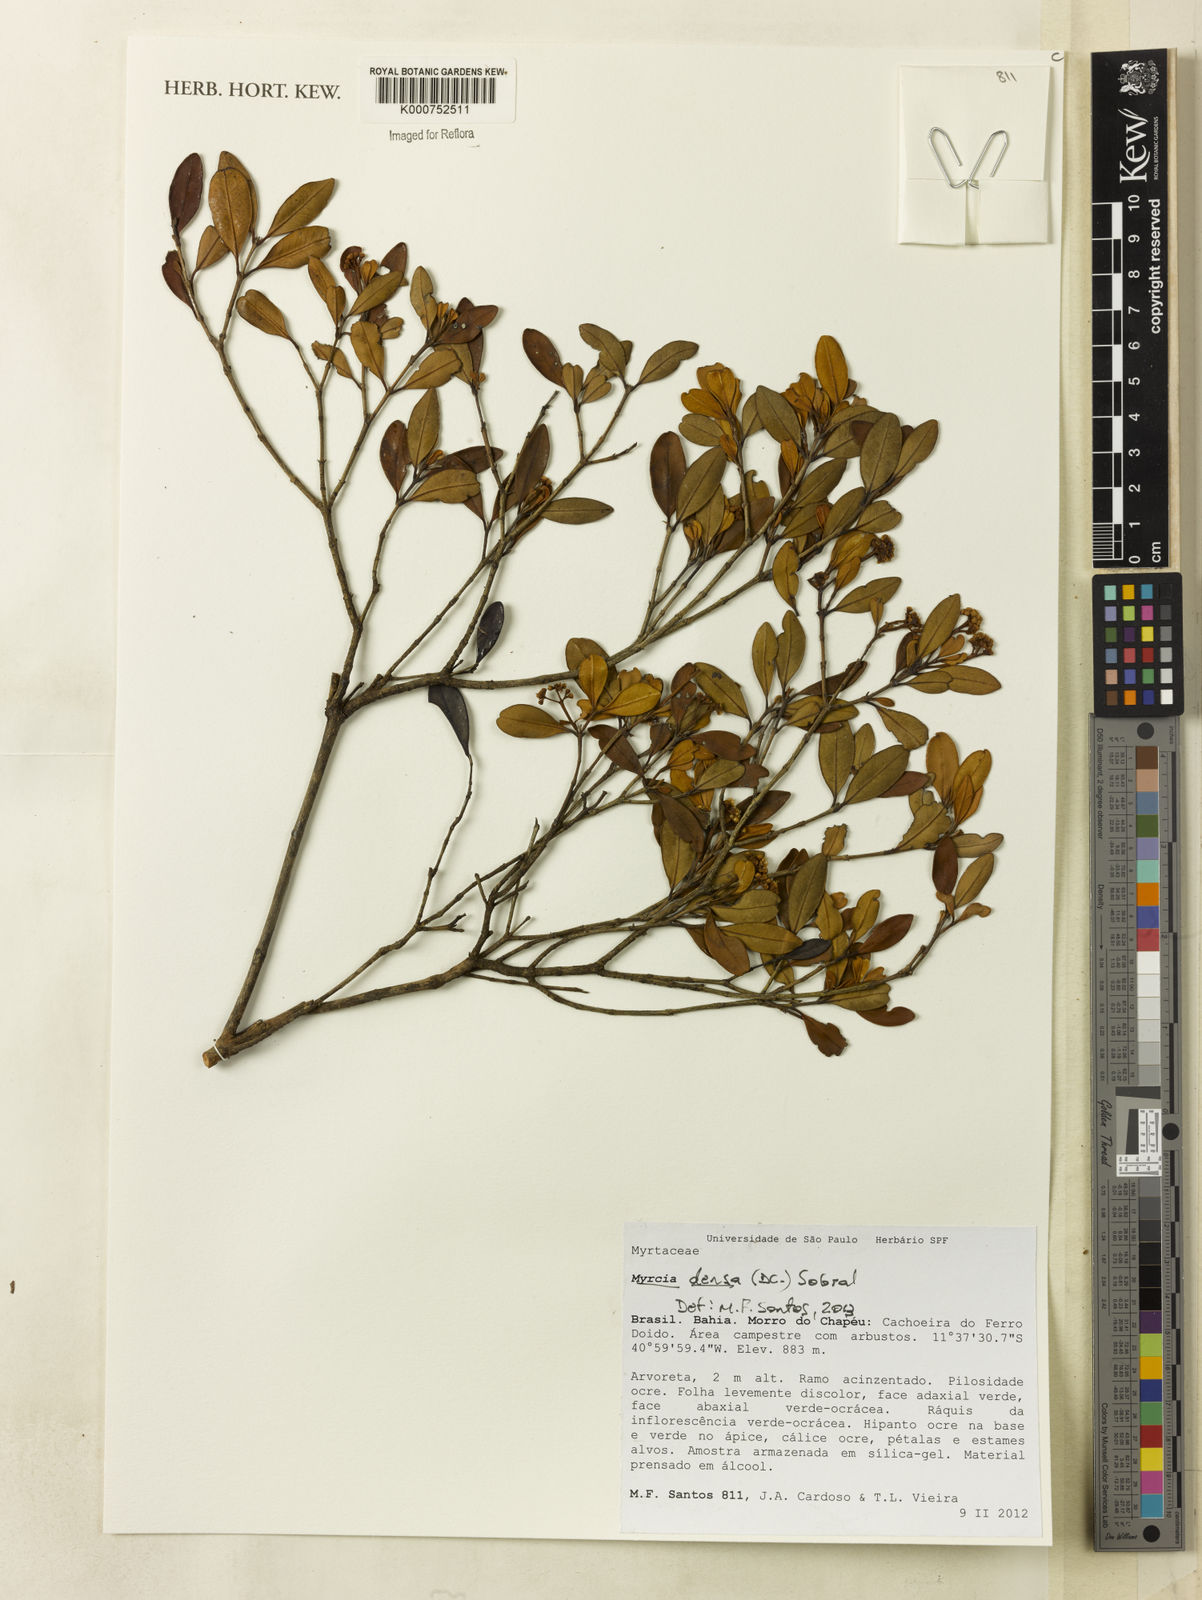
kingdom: Plantae
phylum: Tracheophyta
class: Magnoliopsida
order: Myrtales
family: Myrtaceae
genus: Myrcia
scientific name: Myrcia densa
